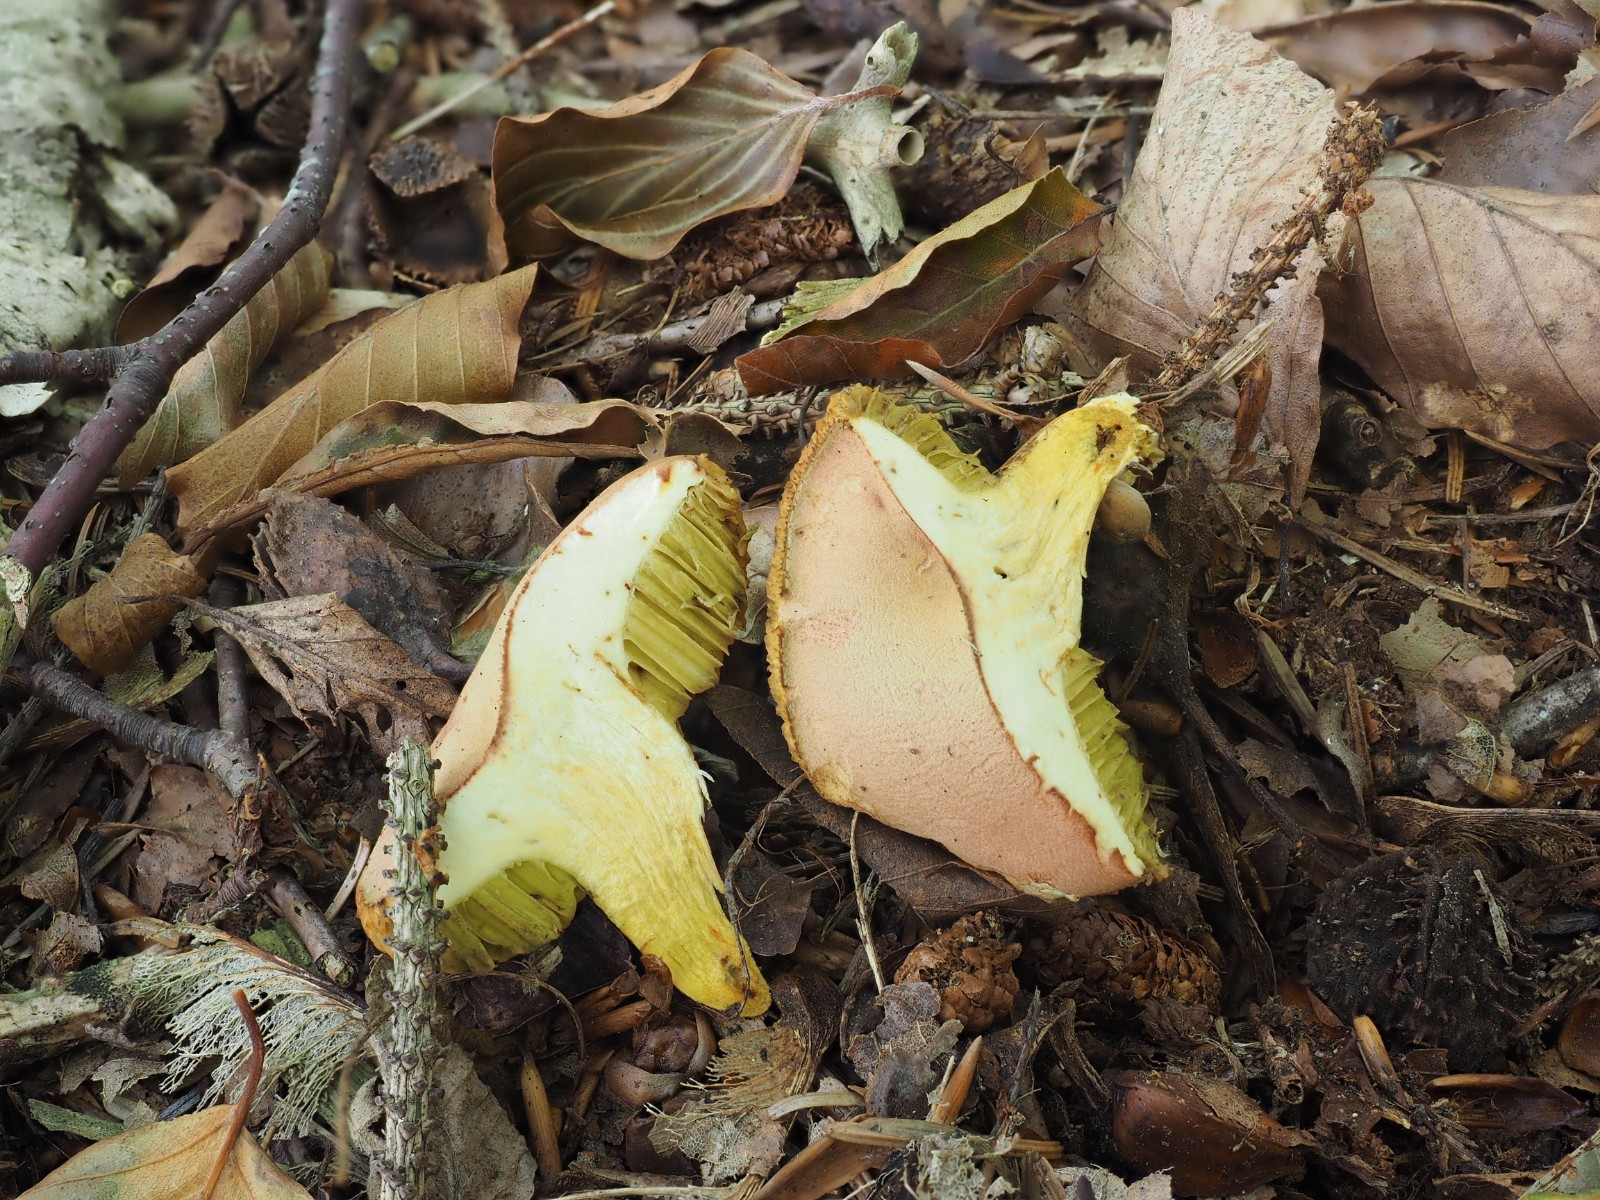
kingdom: Fungi
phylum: Basidiomycota
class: Agaricomycetes
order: Boletales
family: Boletaceae
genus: Hortiboletus
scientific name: Hortiboletus
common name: dværgrørhat
